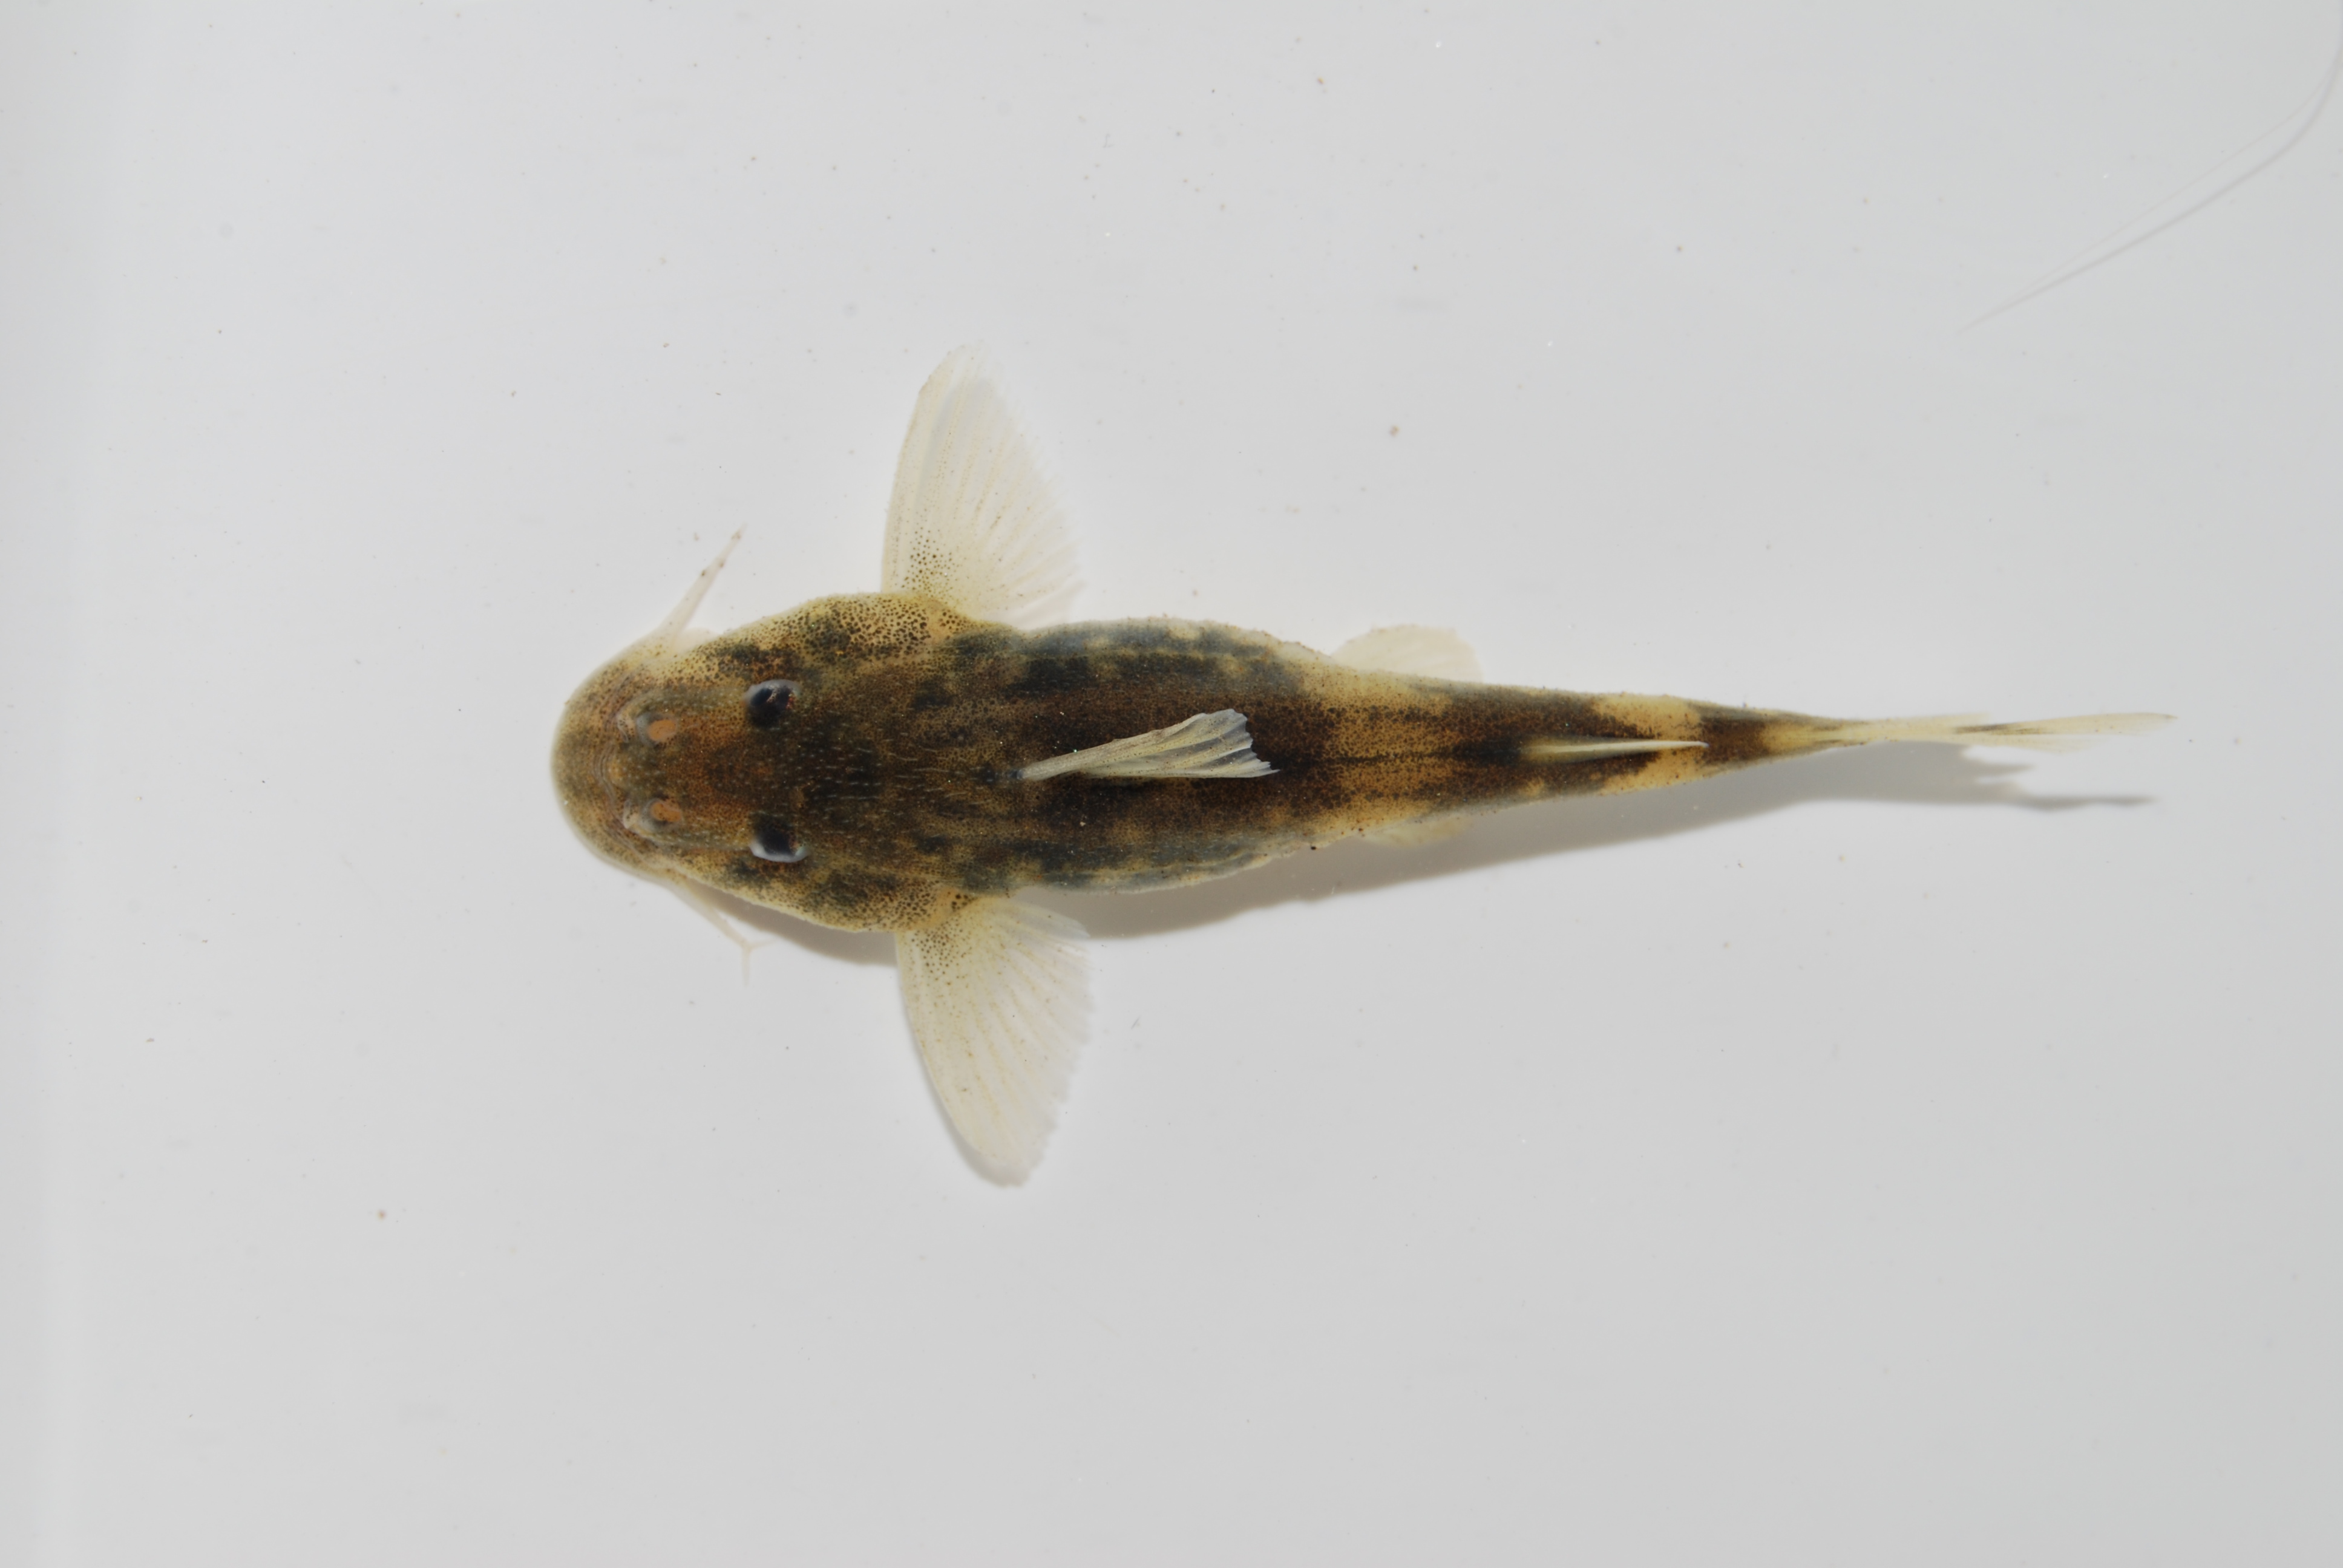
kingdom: Animalia
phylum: Chordata
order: Siluriformes
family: Mochokidae
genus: Chiloglanis
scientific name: Chiloglanis neumanni
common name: Neumann's rock catlet
